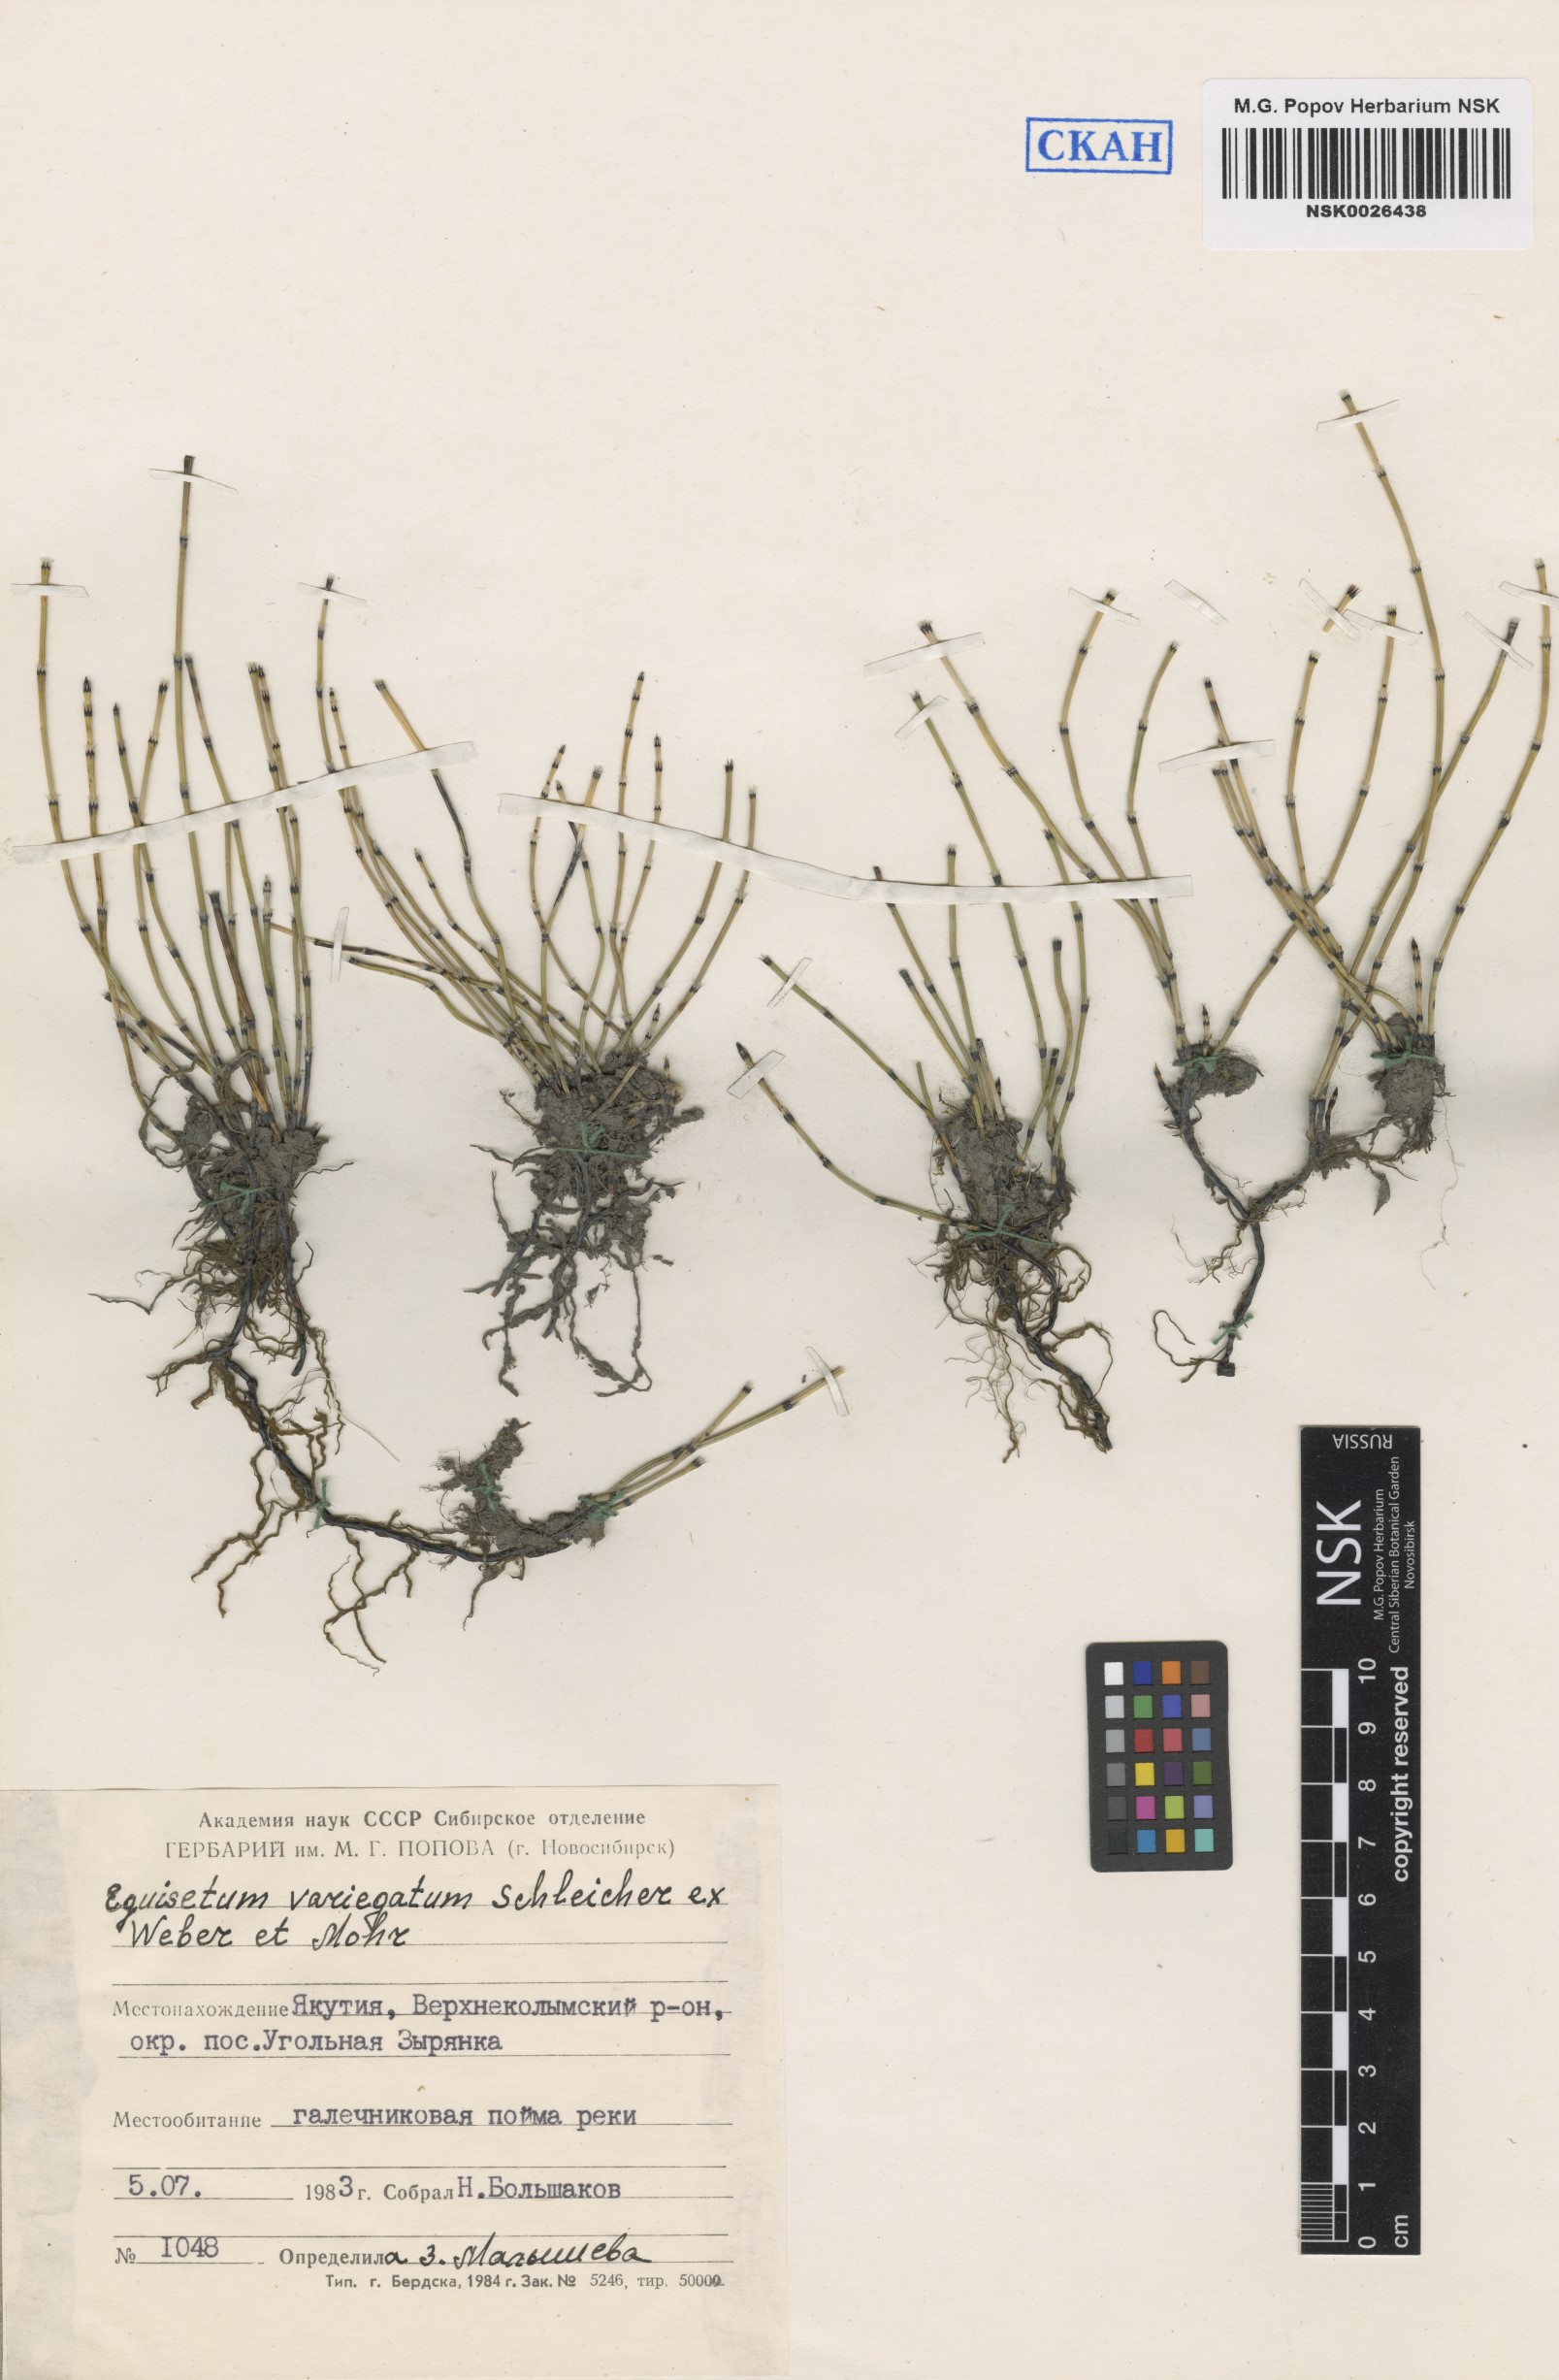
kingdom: Plantae
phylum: Tracheophyta
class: Polypodiopsida
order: Equisetales
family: Equisetaceae
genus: Equisetum
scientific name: Equisetum variegatum
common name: Variegated horsetail
